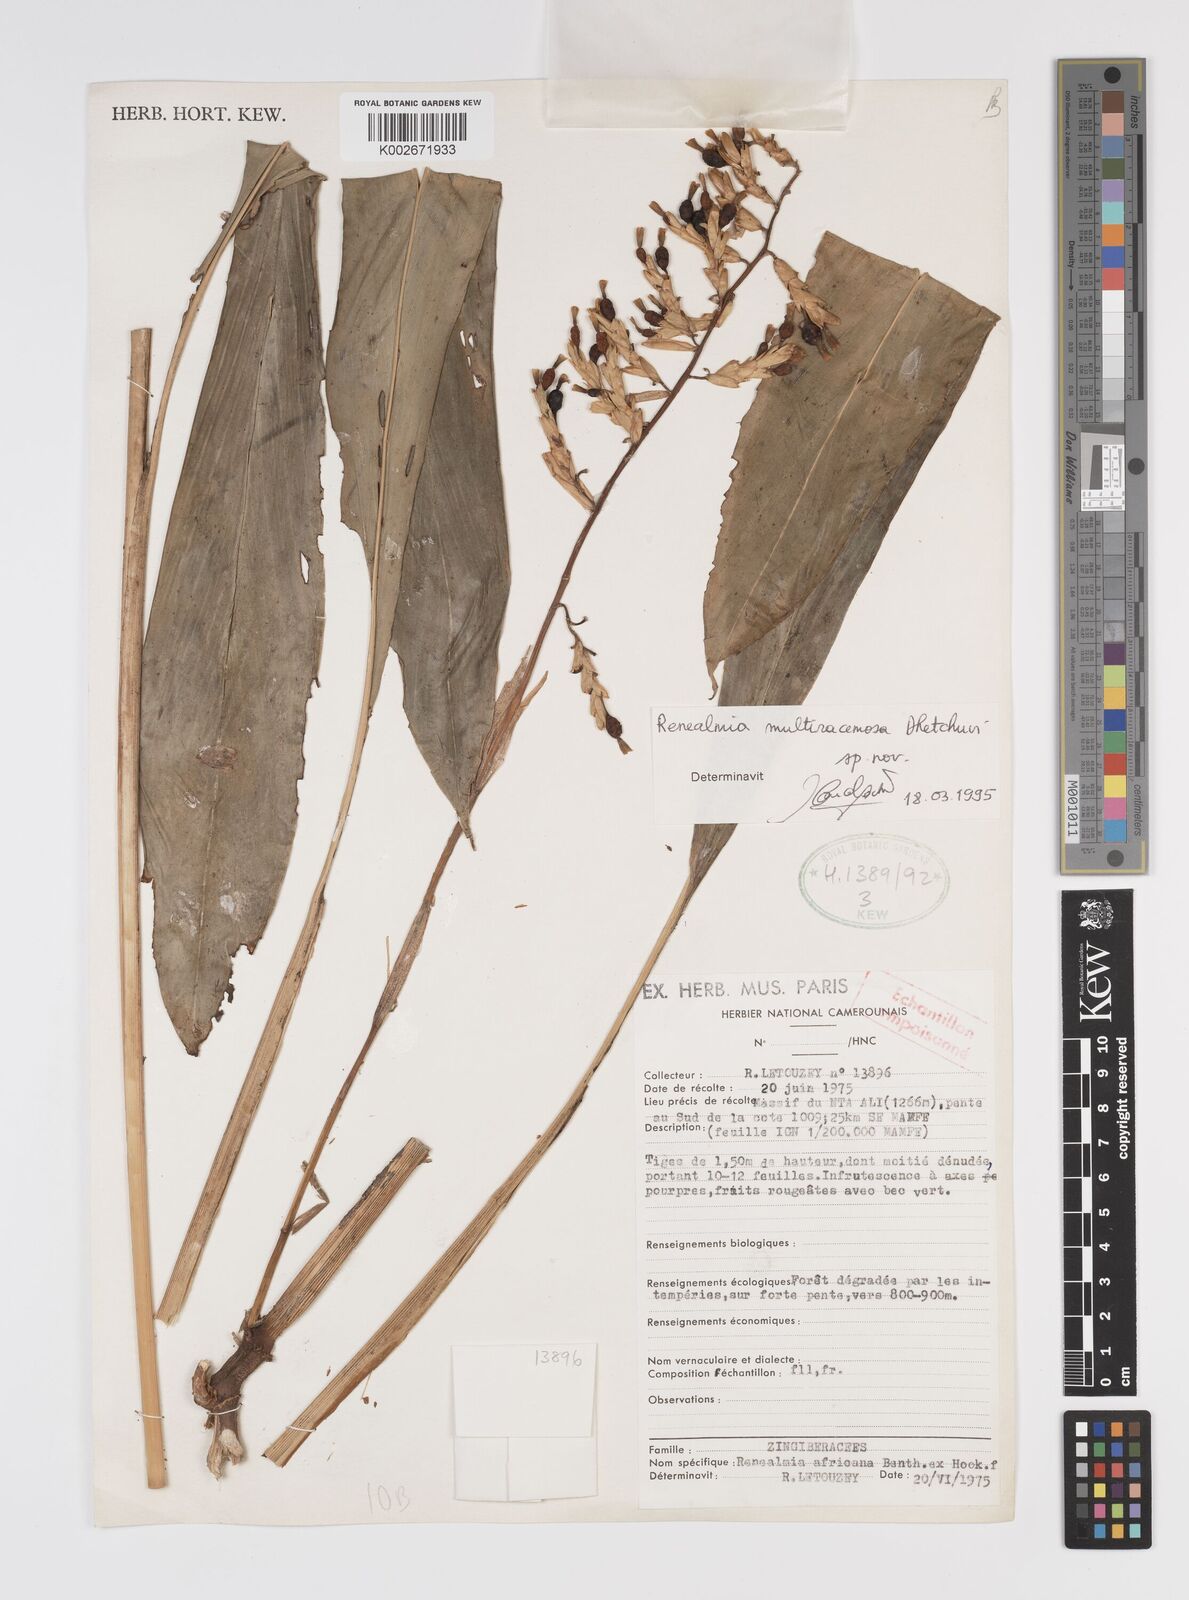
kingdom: Plantae
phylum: Tracheophyta
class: Liliopsida
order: Zingiberales
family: Zingiberaceae
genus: Renealmia
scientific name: Renealmia
